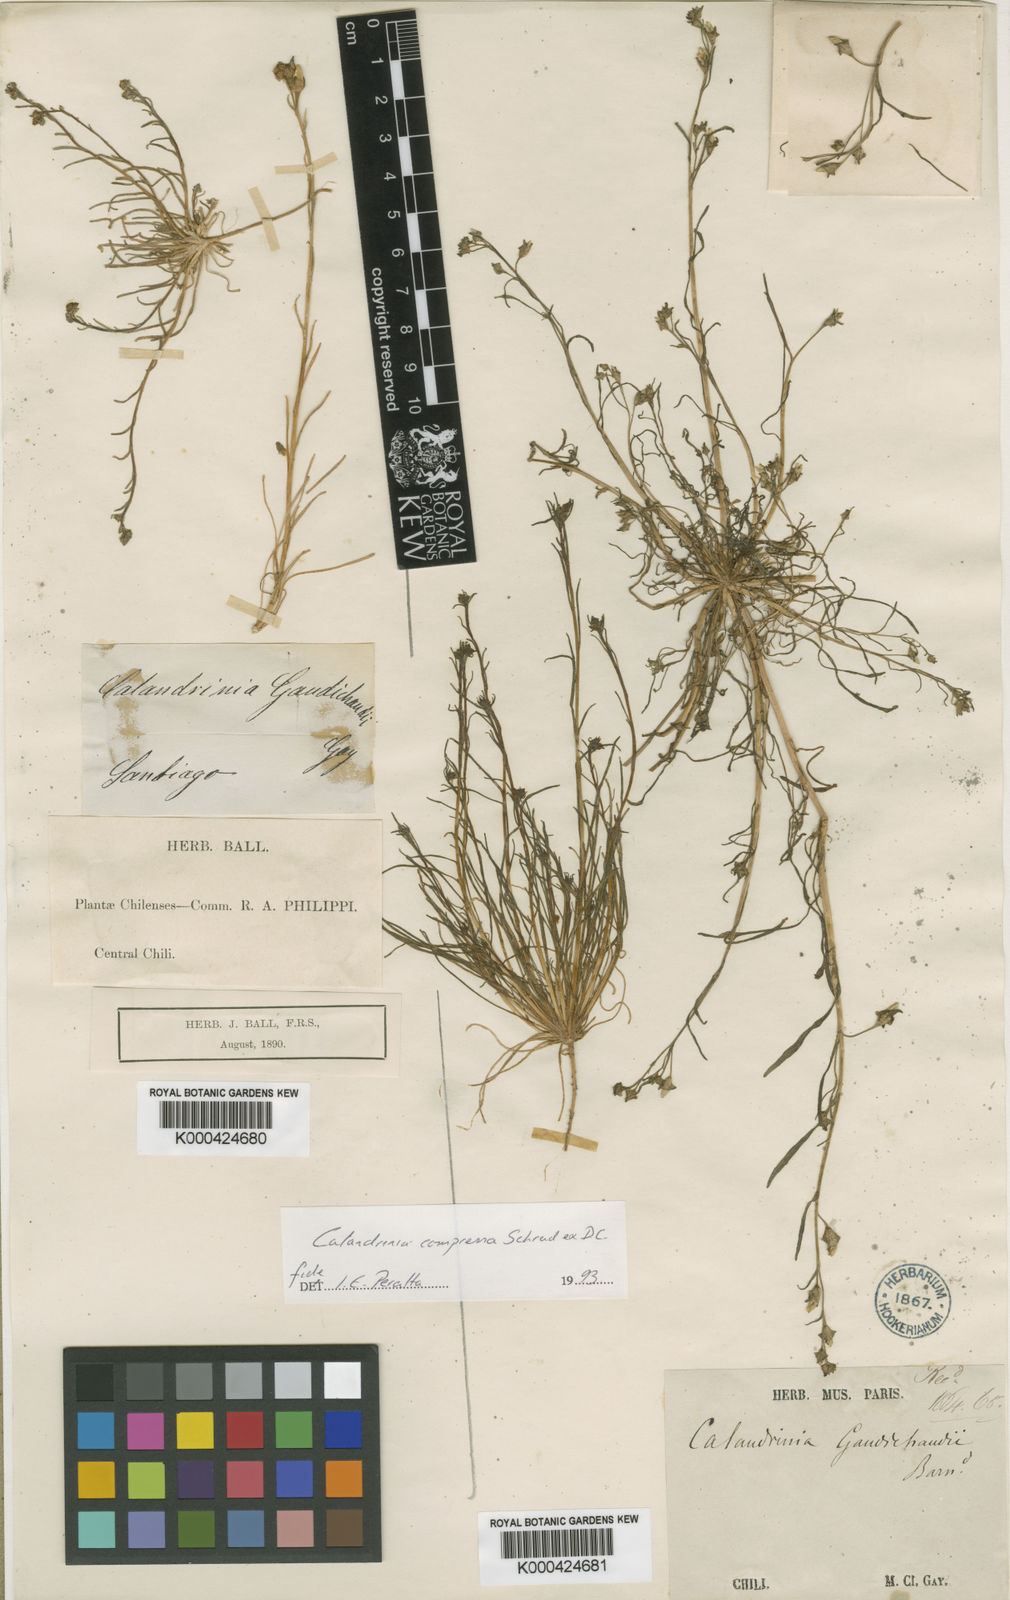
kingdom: Plantae
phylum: Tracheophyta
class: Magnoliopsida
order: Caryophyllales
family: Montiaceae
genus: Calandrinia
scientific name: Calandrinia pilosiuscula
